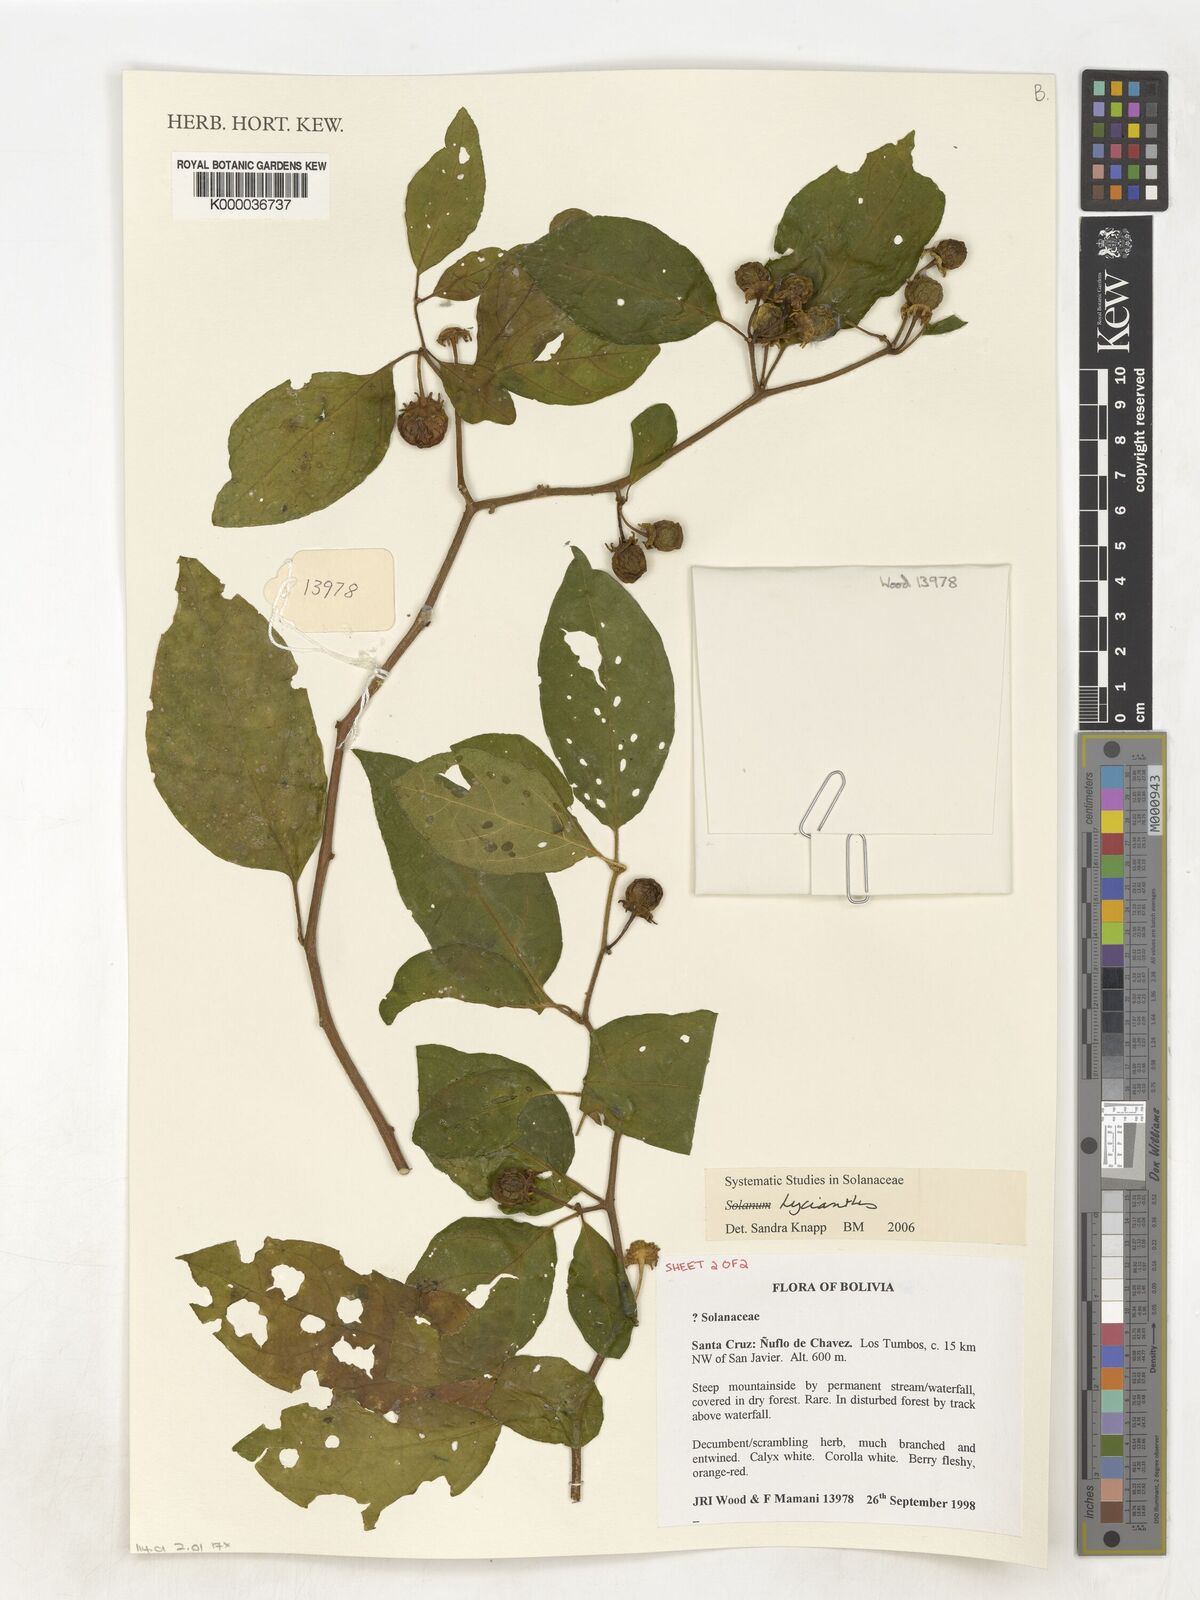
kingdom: Plantae
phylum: Tracheophyta
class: Magnoliopsida
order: Solanales
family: Solanaceae
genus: Lycianthes
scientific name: Lycianthes
